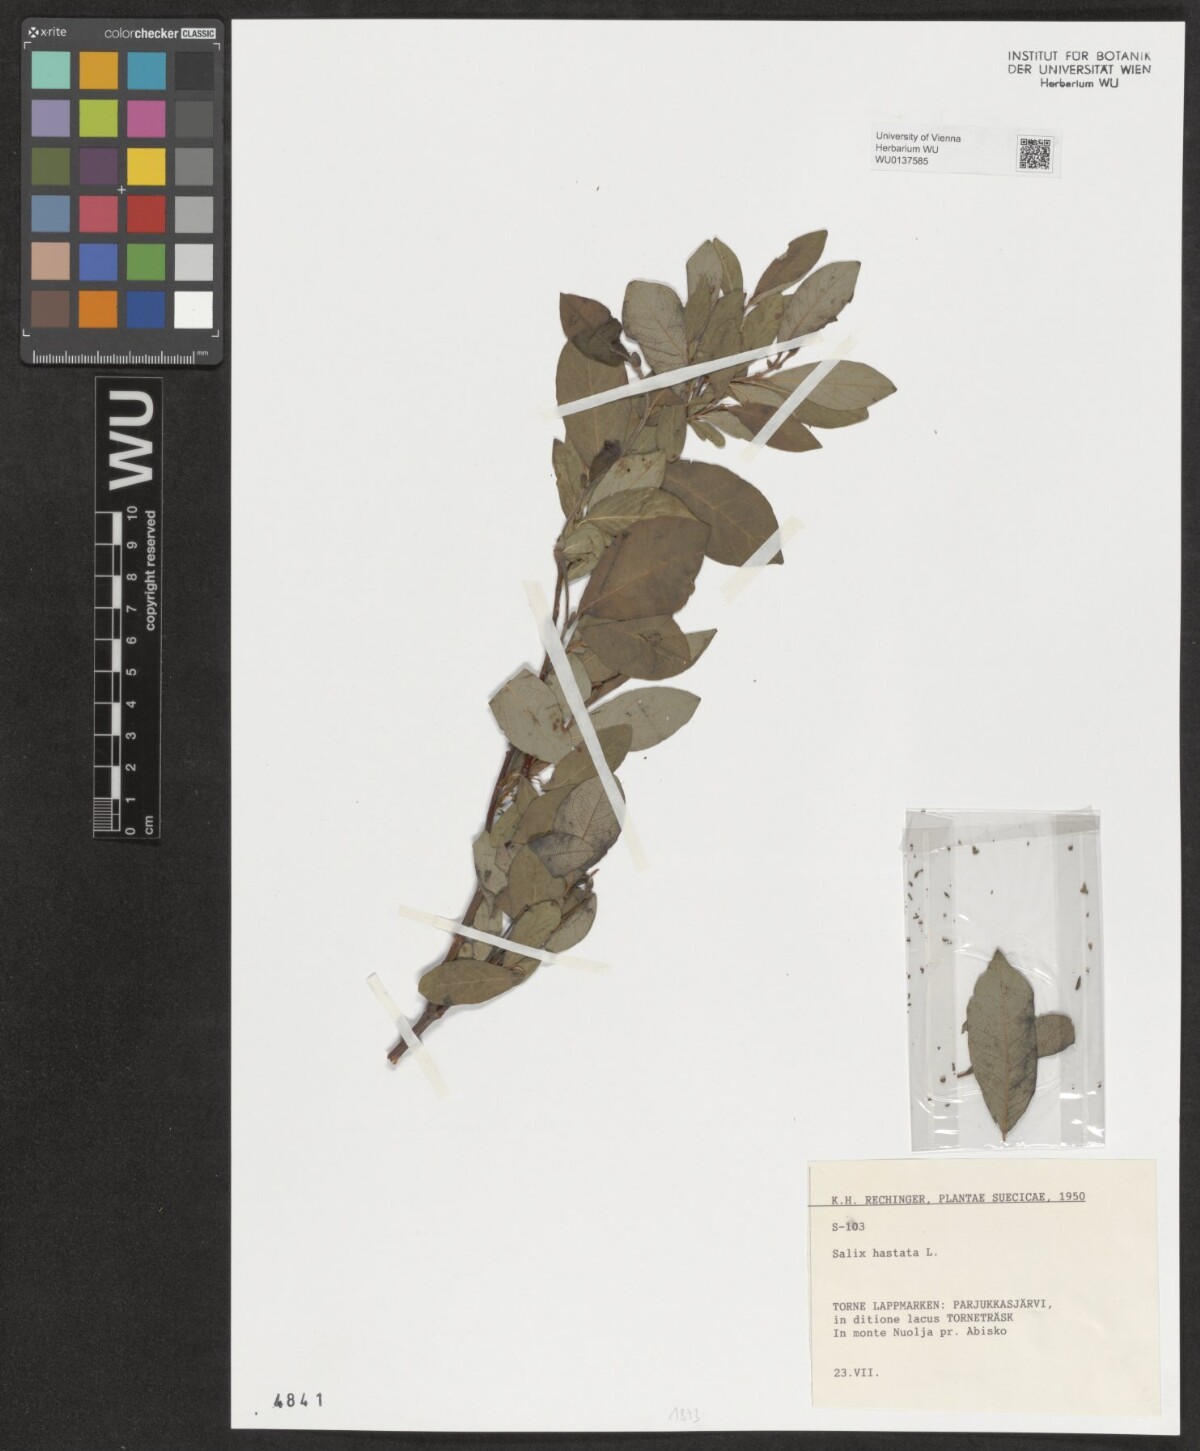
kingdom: Plantae
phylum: Tracheophyta
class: Magnoliopsida
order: Malpighiales
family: Salicaceae
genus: Salix
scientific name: Salix hastata
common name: Halberd willow
